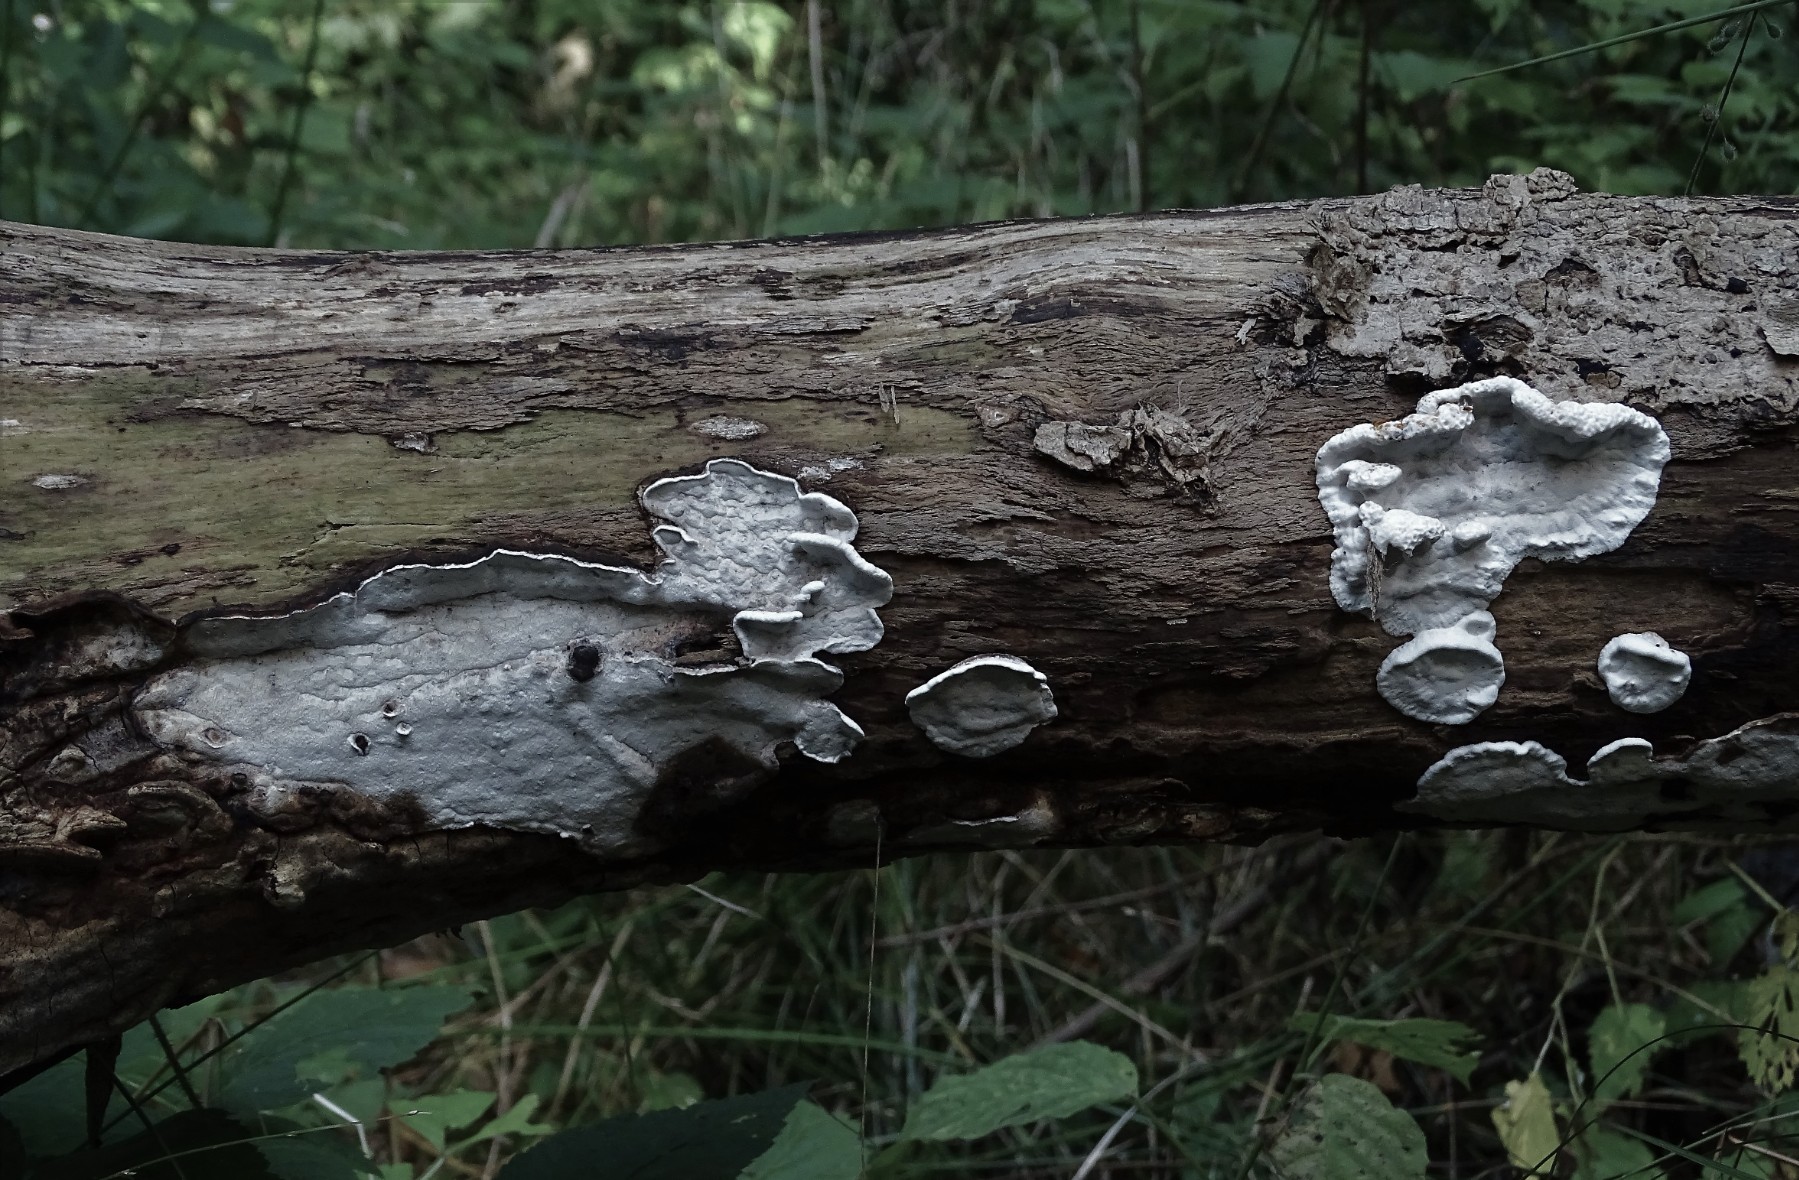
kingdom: Fungi
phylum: Basidiomycota
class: Agaricomycetes
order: Polyporales
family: Incrustoporiaceae
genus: Skeletocutis
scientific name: Skeletocutis nemoralis
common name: stor krystalporesvamp
